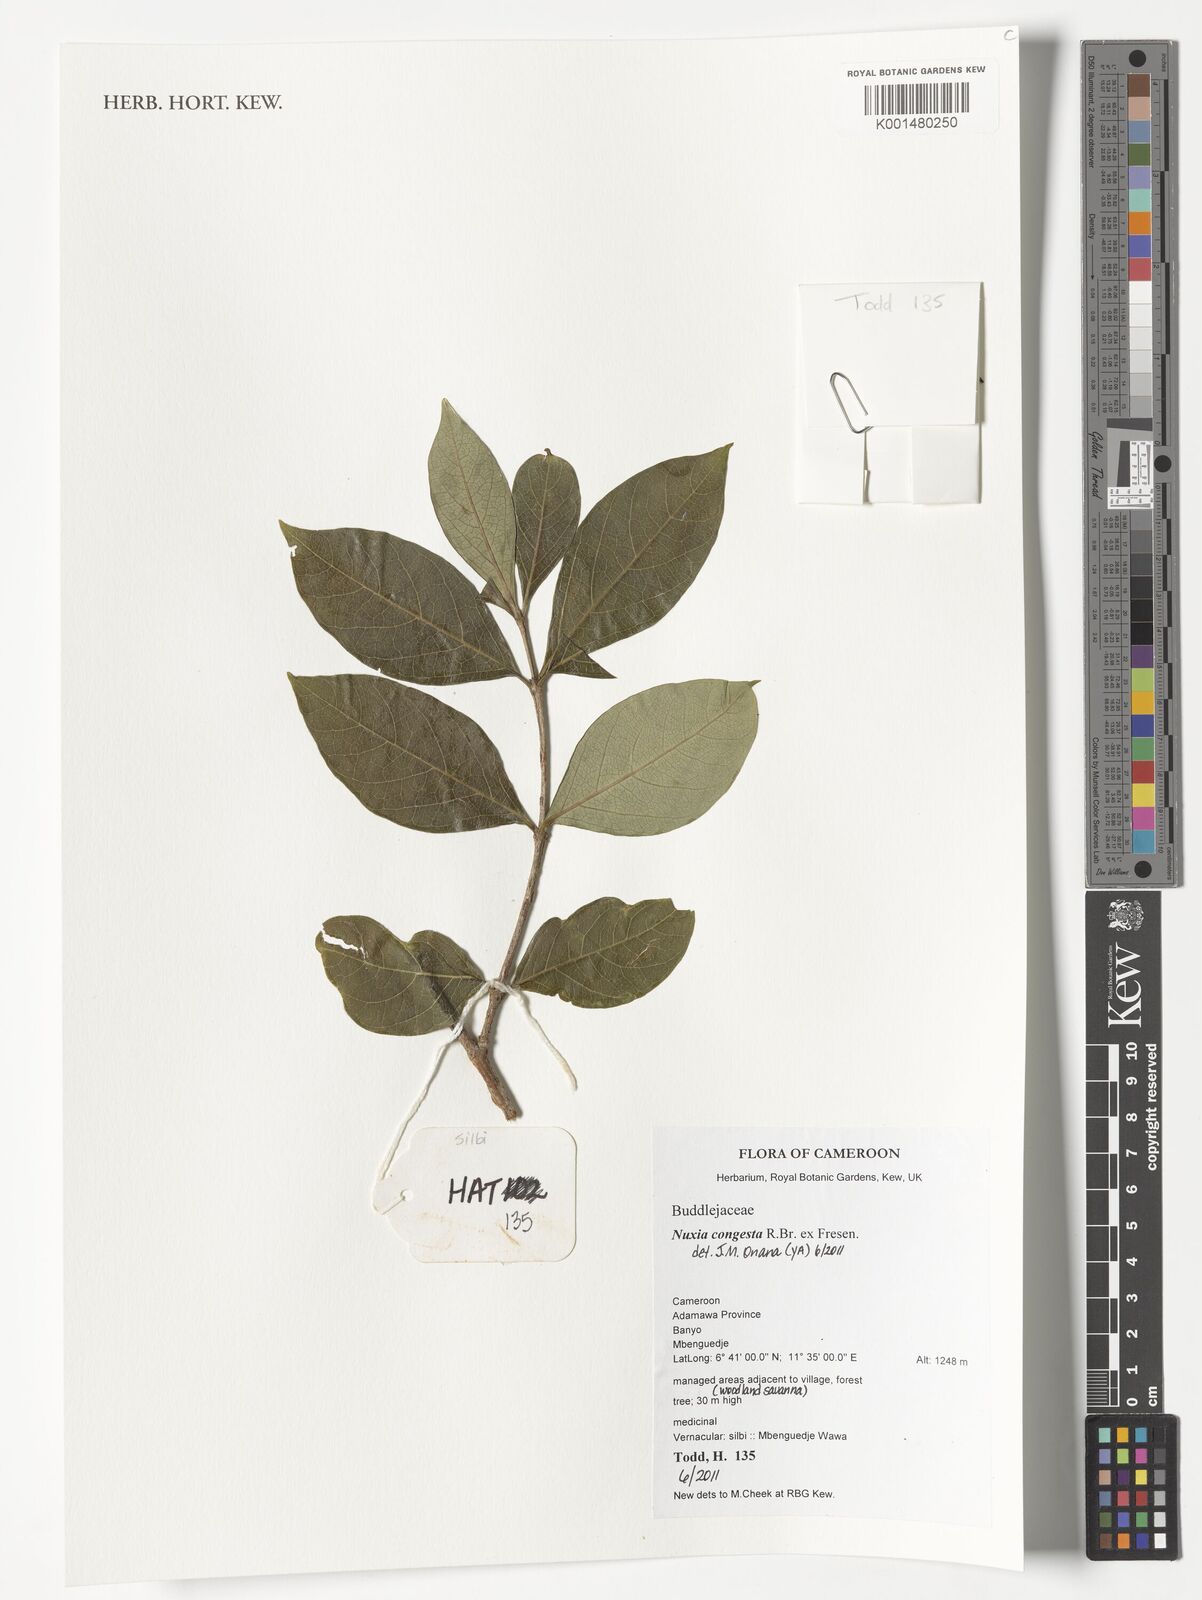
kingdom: Plantae
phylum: Tracheophyta
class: Magnoliopsida
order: Lamiales
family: Stilbaceae
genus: Nuxia
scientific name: Nuxia congesta
